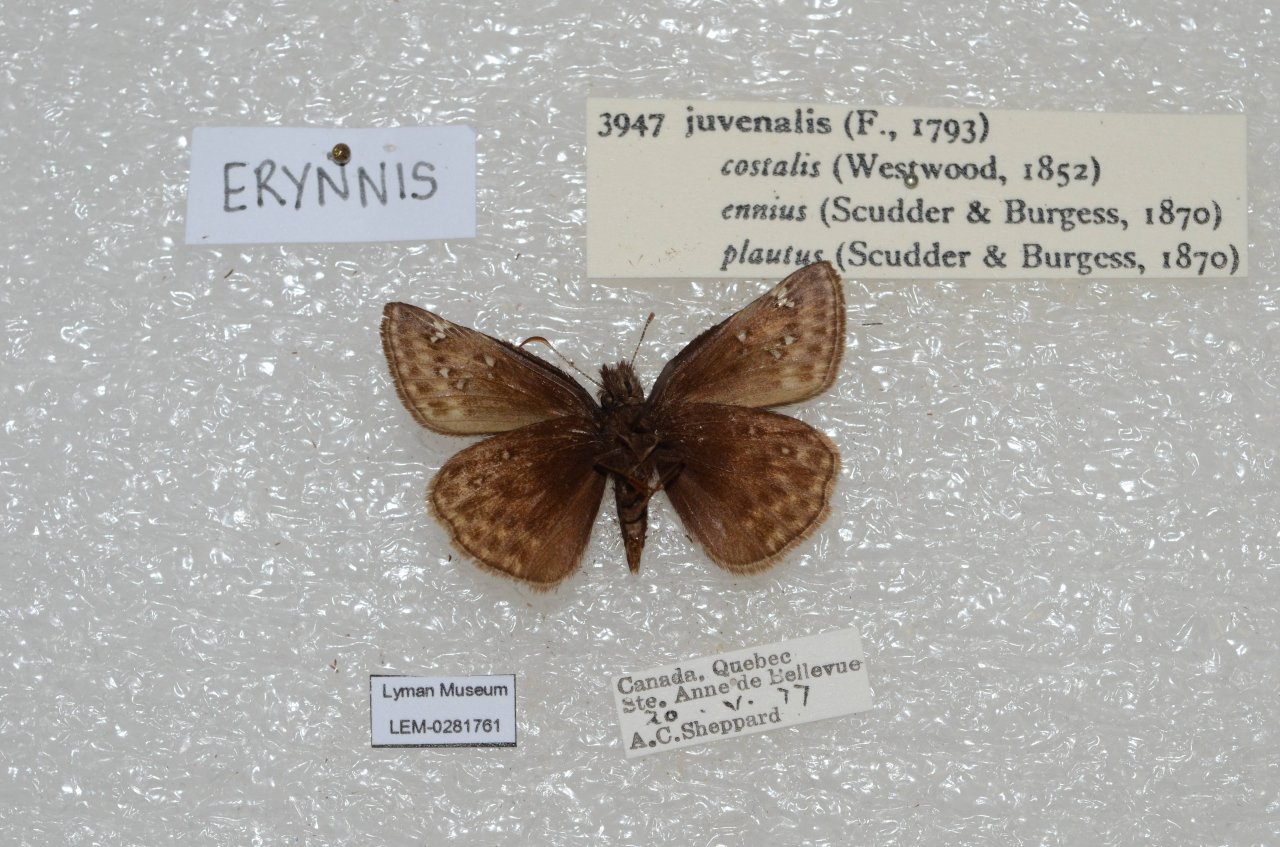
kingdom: Animalia
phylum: Arthropoda
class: Insecta
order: Lepidoptera
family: Hesperiidae
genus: Gesta
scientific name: Gesta
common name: Juvenal's Duskywing
